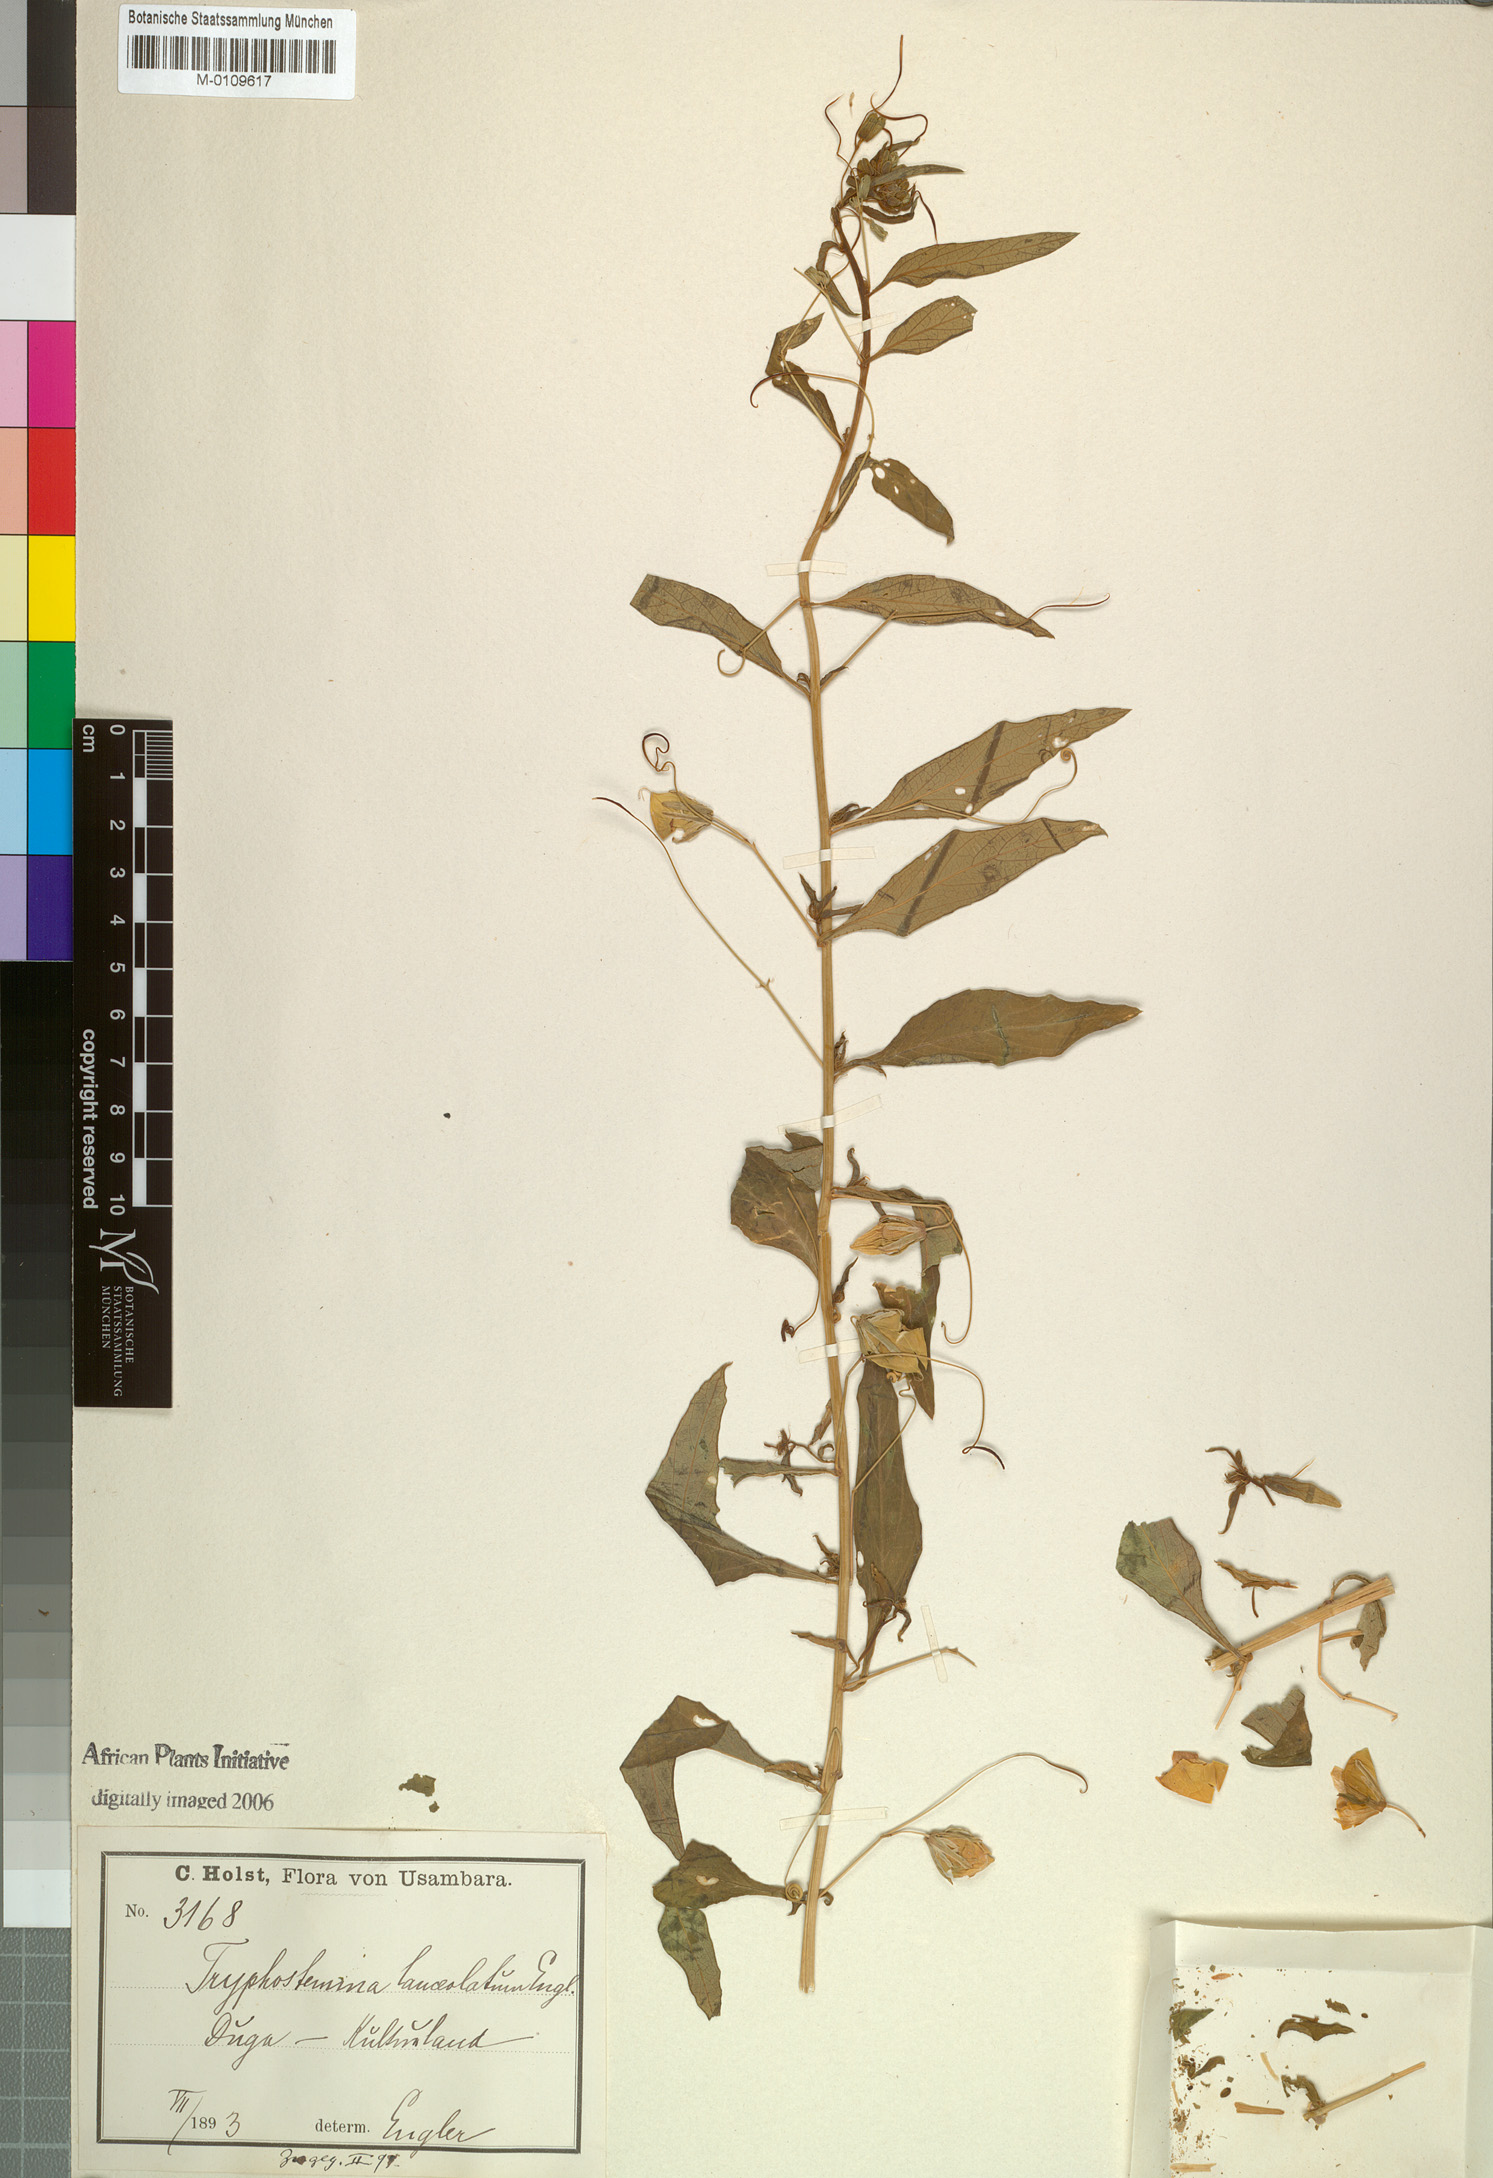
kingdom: Plantae
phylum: Tracheophyta
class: Magnoliopsida
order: Malpighiales
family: Passifloraceae
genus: Basananthe
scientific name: Basananthe lanceolata
